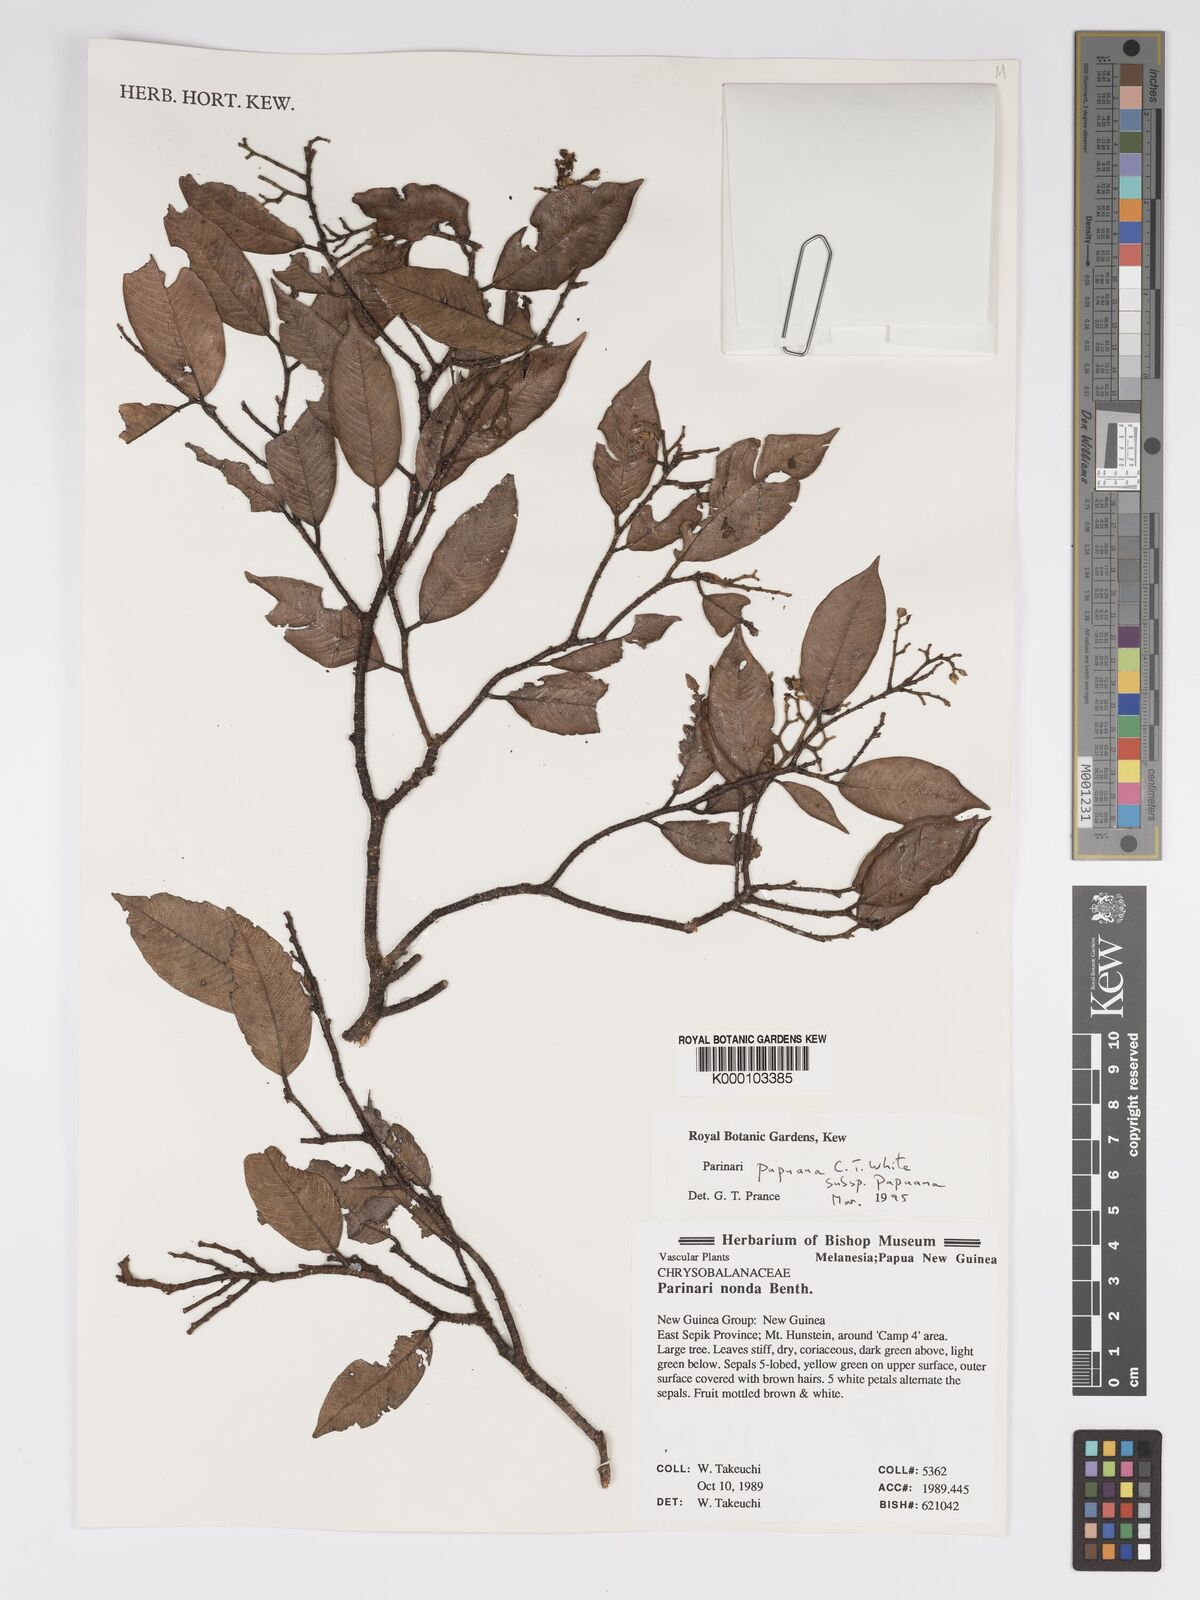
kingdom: Plantae
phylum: Tracheophyta
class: Magnoliopsida
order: Malpighiales
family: Chrysobalanaceae
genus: Parinari
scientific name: Parinari papuana
